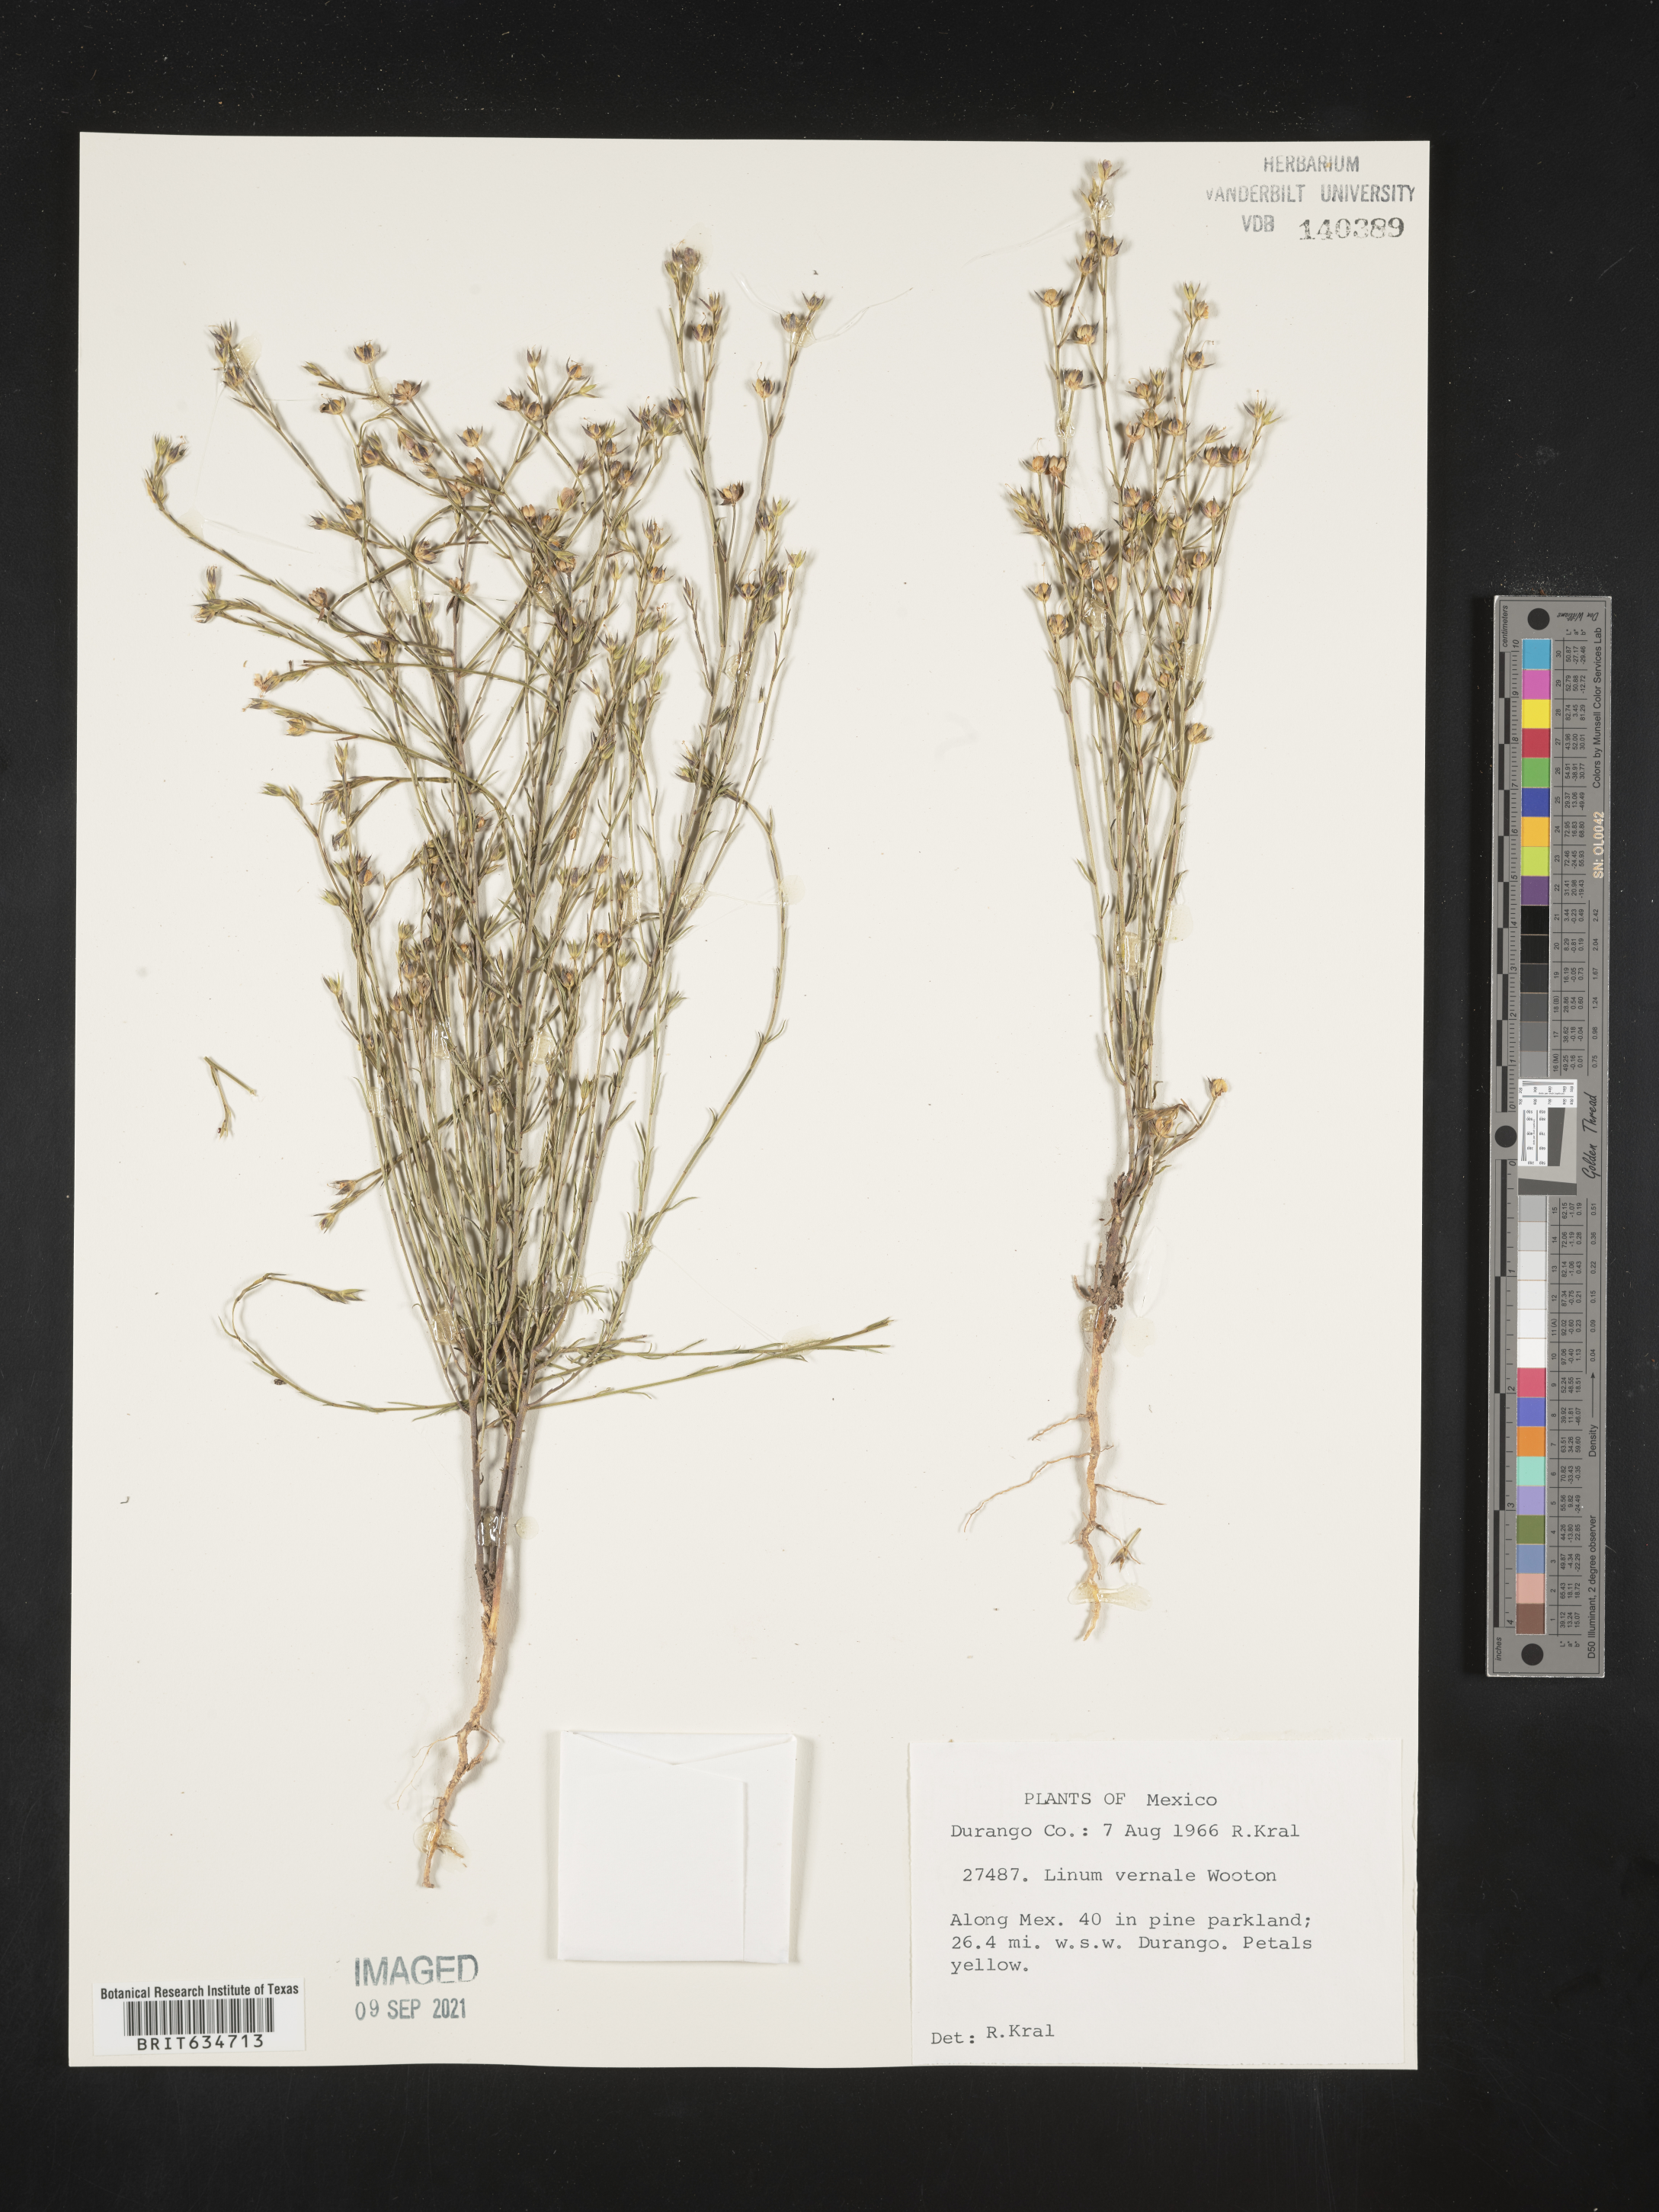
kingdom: Plantae
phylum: Tracheophyta
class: Magnoliopsida
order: Malpighiales
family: Linaceae
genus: Linum
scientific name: Linum
